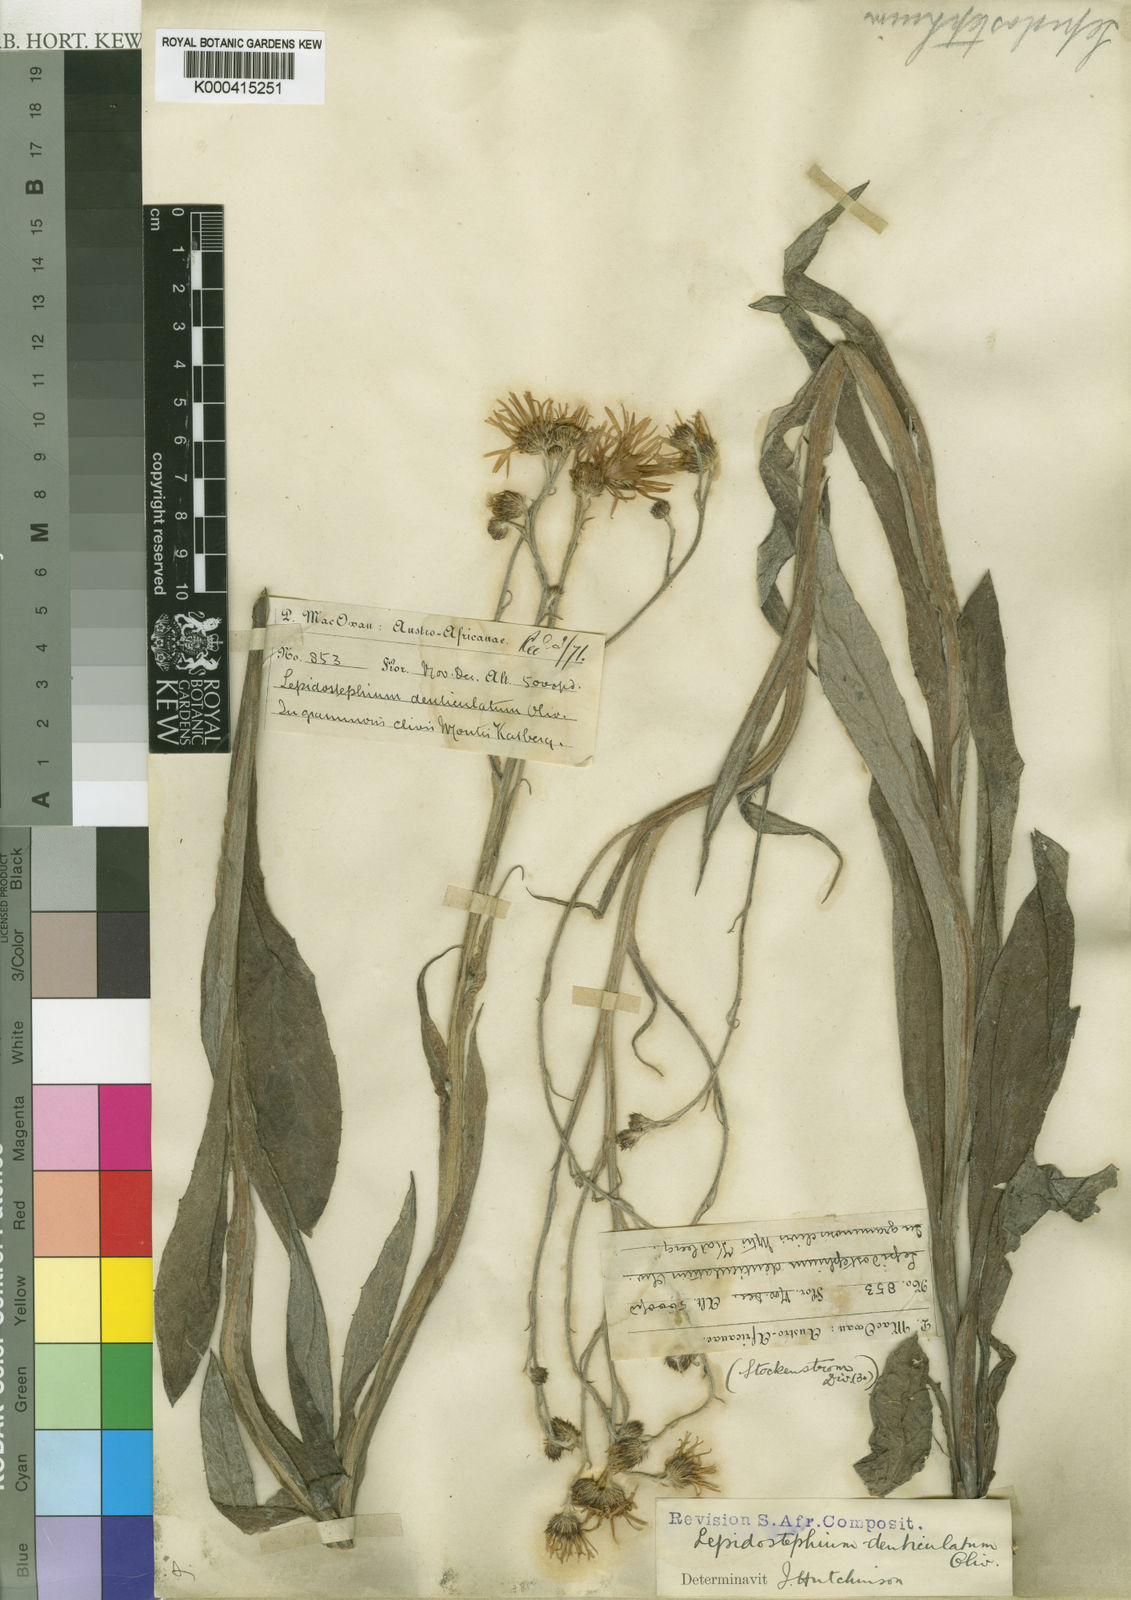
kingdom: Plantae
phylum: Tracheophyta
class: Magnoliopsida
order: Asterales
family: Asteraceae
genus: Lepidostephium
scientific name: Lepidostephium denticulatum
